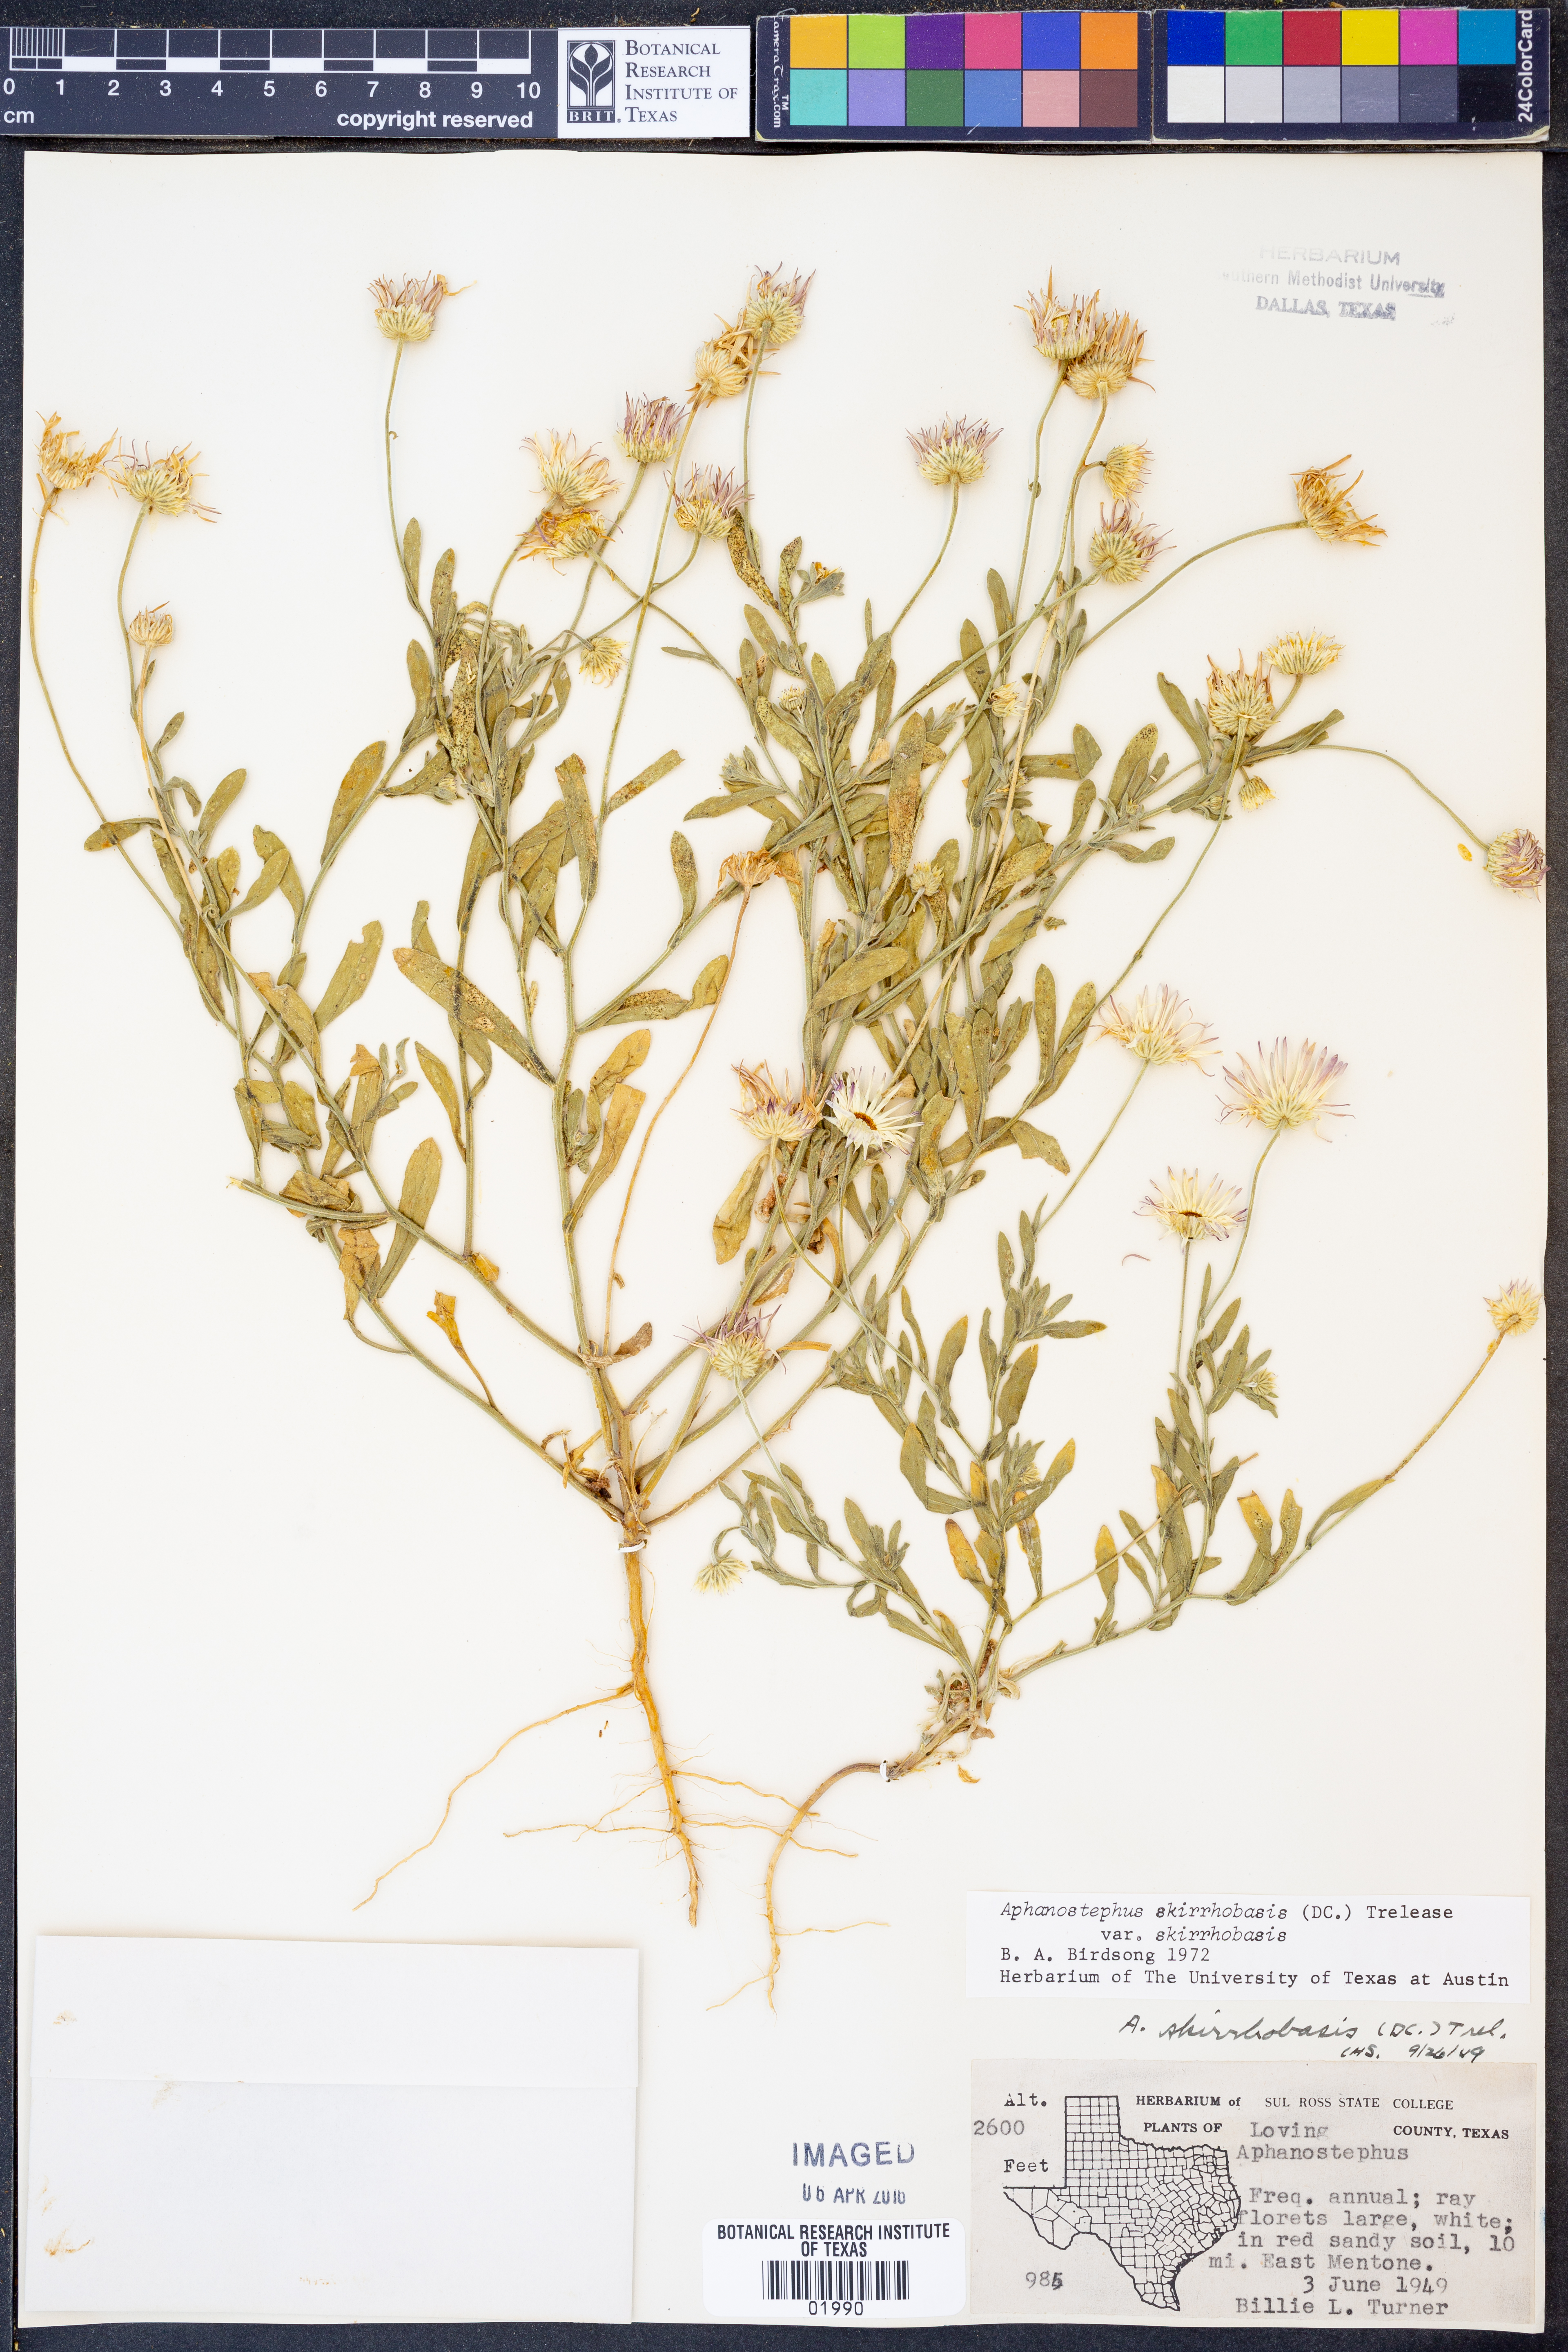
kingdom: Plantae
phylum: Tracheophyta
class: Magnoliopsida
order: Asterales
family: Asteraceae
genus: Aphanostephus
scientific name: Aphanostephus skirrhobasis
